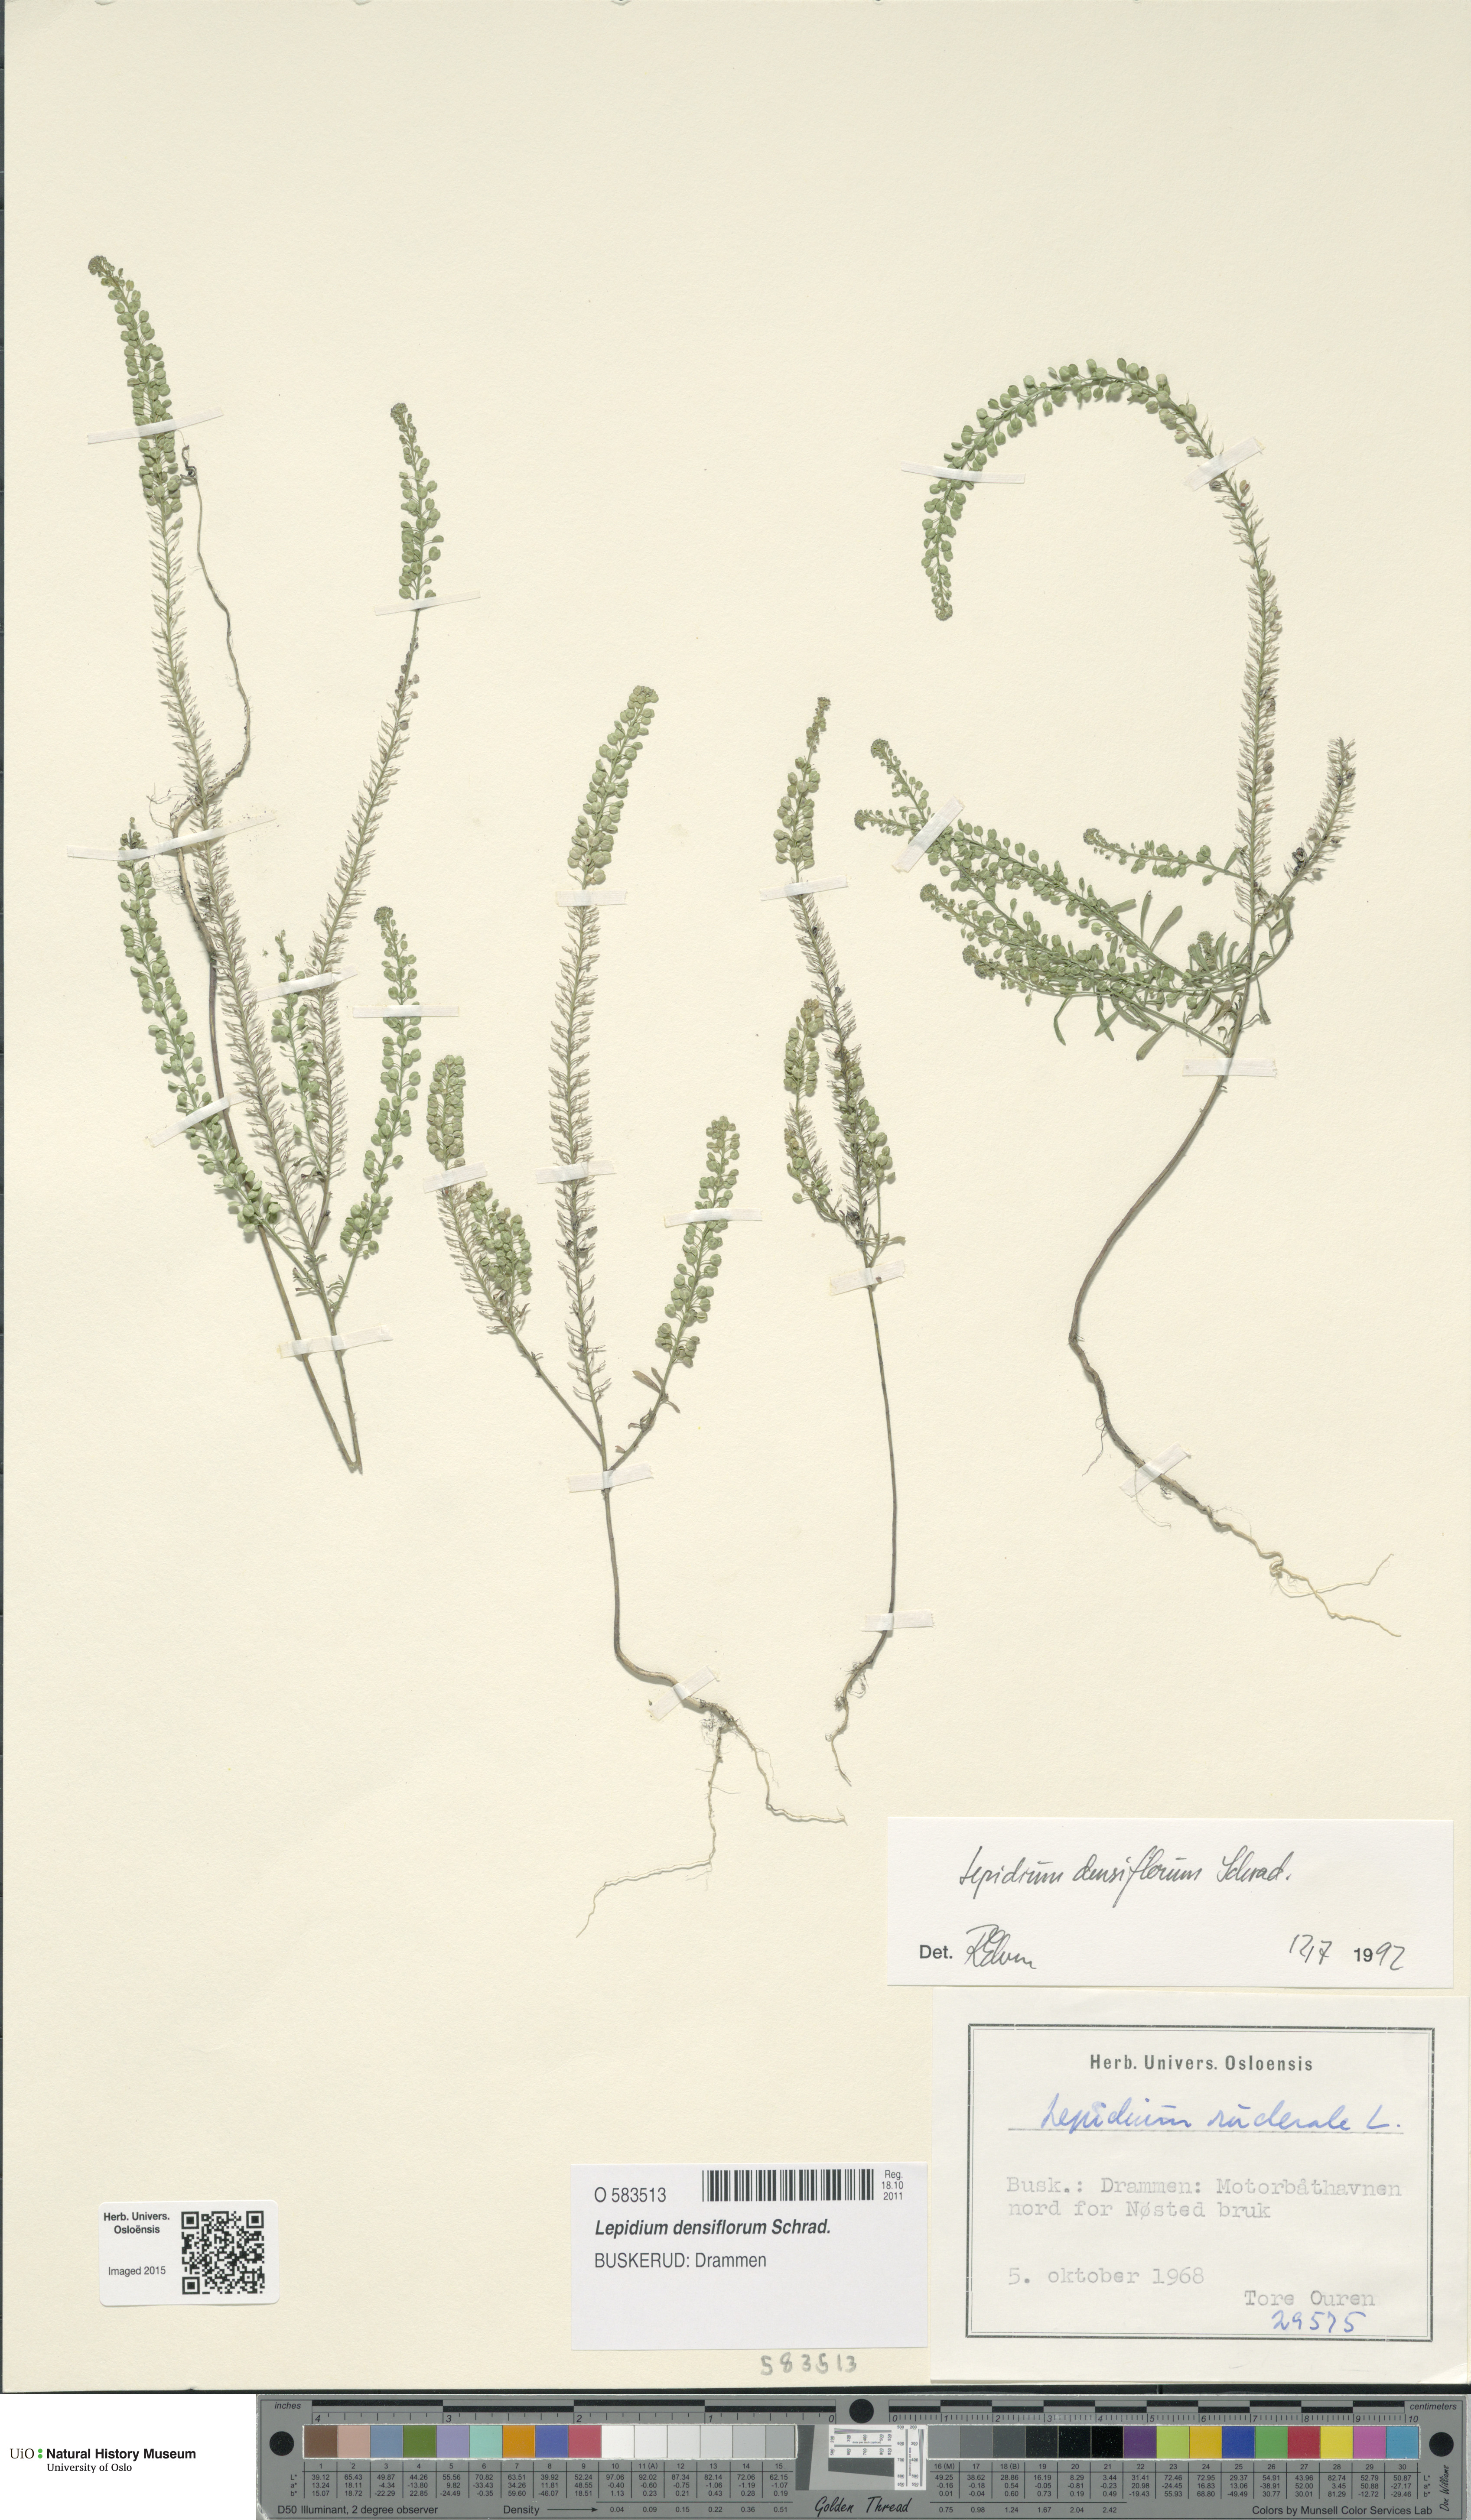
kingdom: Plantae
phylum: Tracheophyta
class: Magnoliopsida
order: Brassicales
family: Brassicaceae
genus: Lepidium
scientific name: Lepidium densiflorum
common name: Miner's pepperwort
